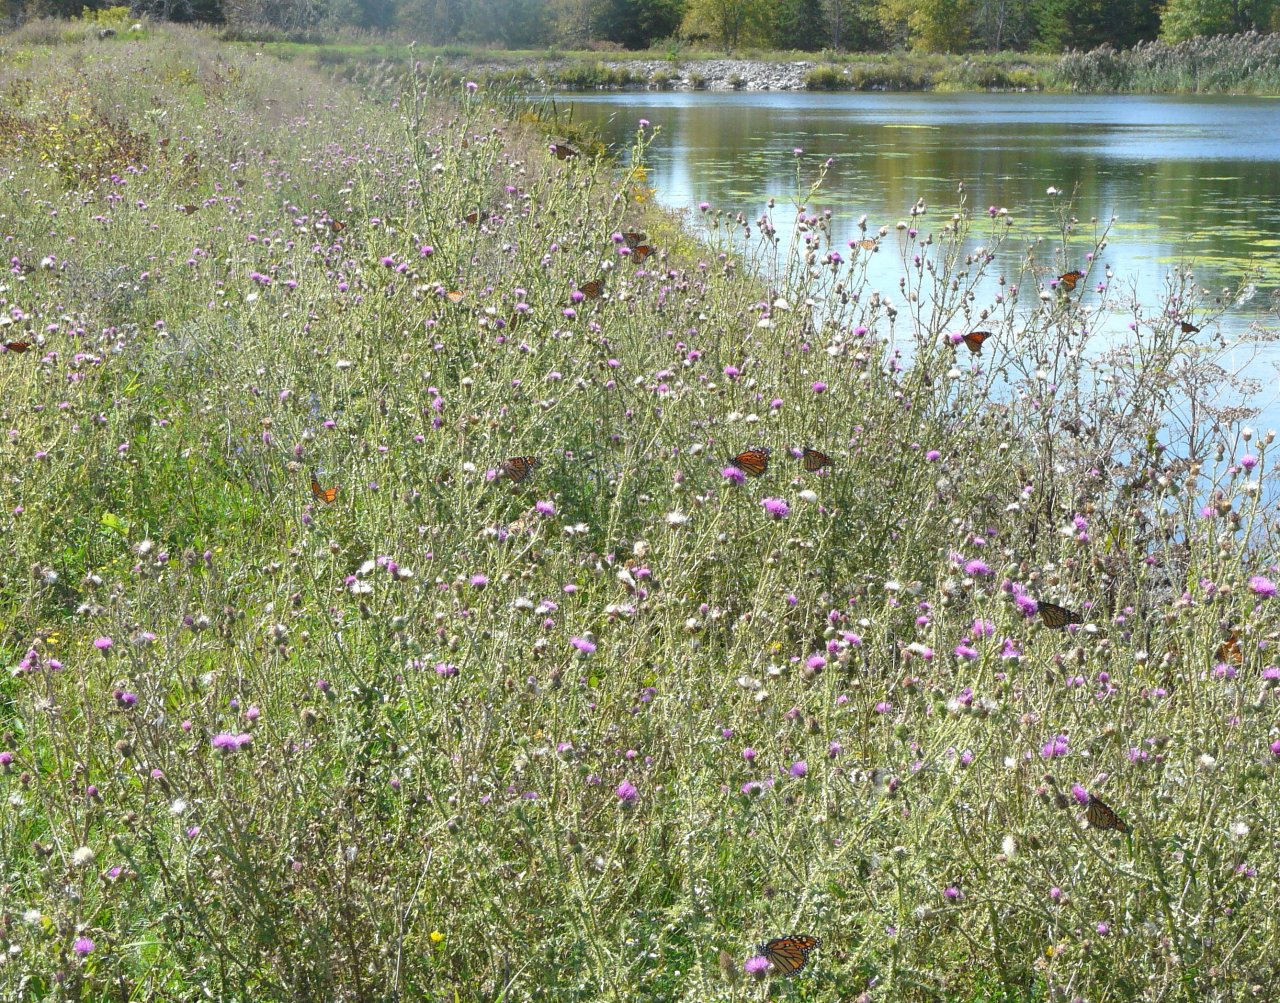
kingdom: Animalia
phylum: Arthropoda
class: Insecta
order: Lepidoptera
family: Nymphalidae
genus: Danaus
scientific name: Danaus plexippus
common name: Monarch
